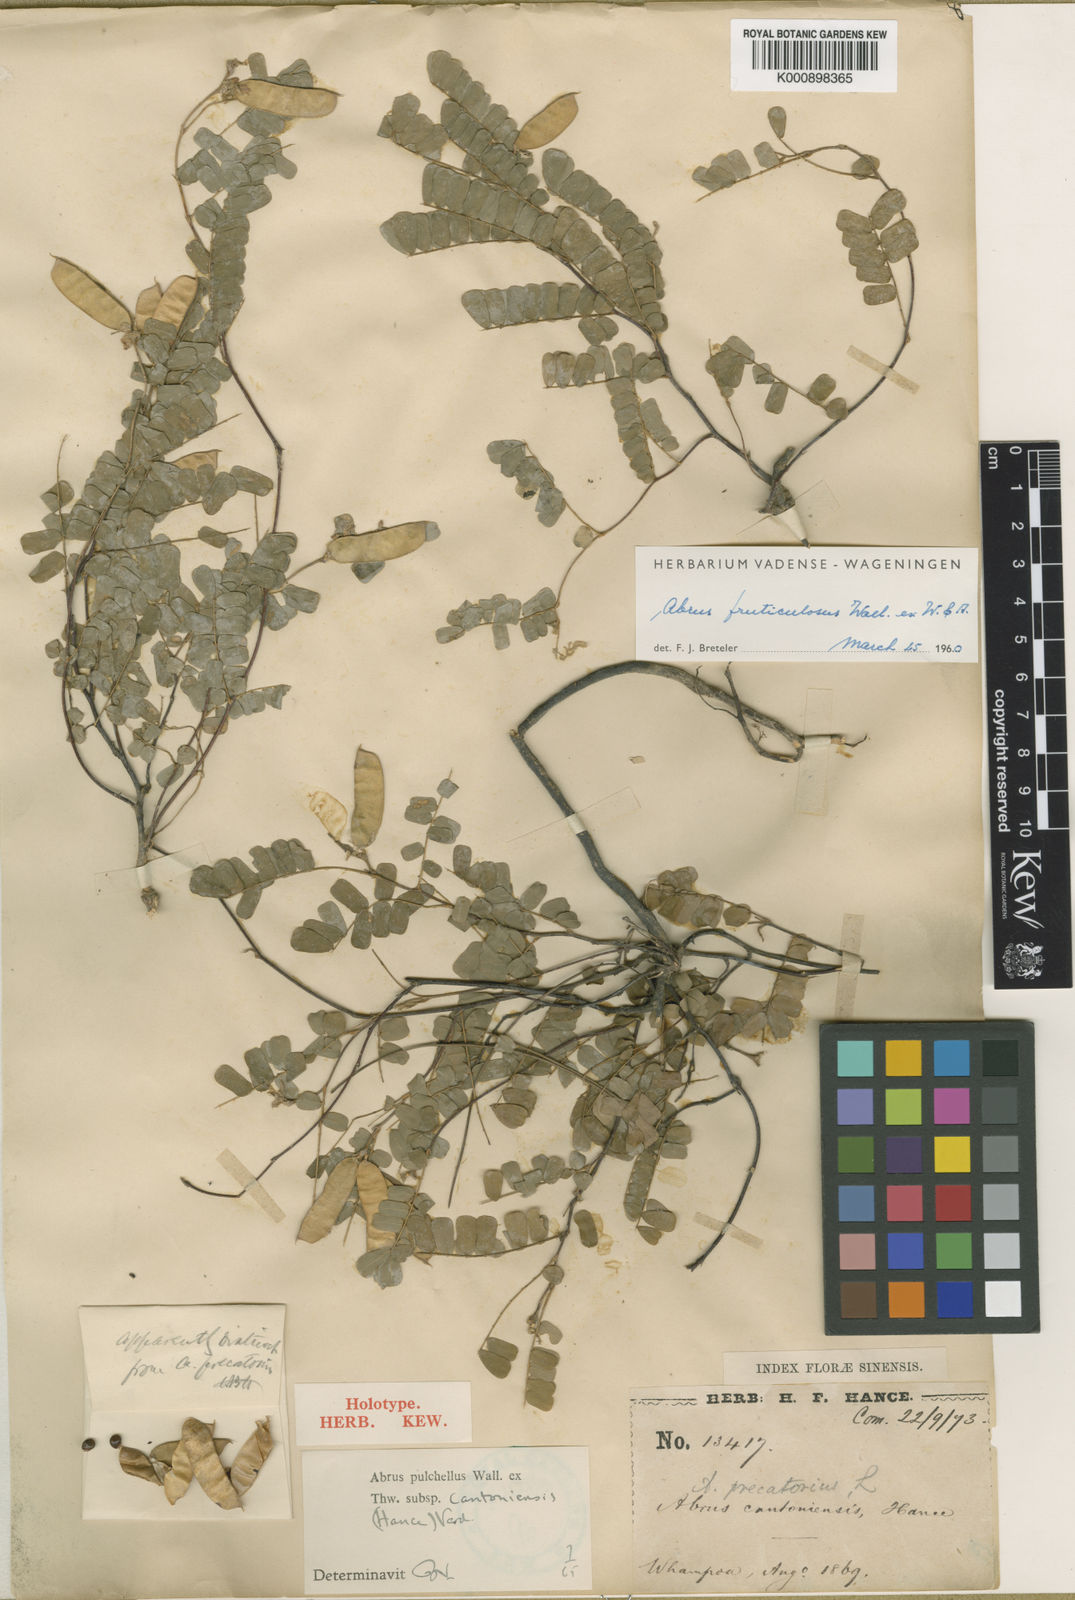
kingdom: Plantae
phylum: Tracheophyta
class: Magnoliopsida
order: Fabales
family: Fabaceae
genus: Abrus
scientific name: Abrus
